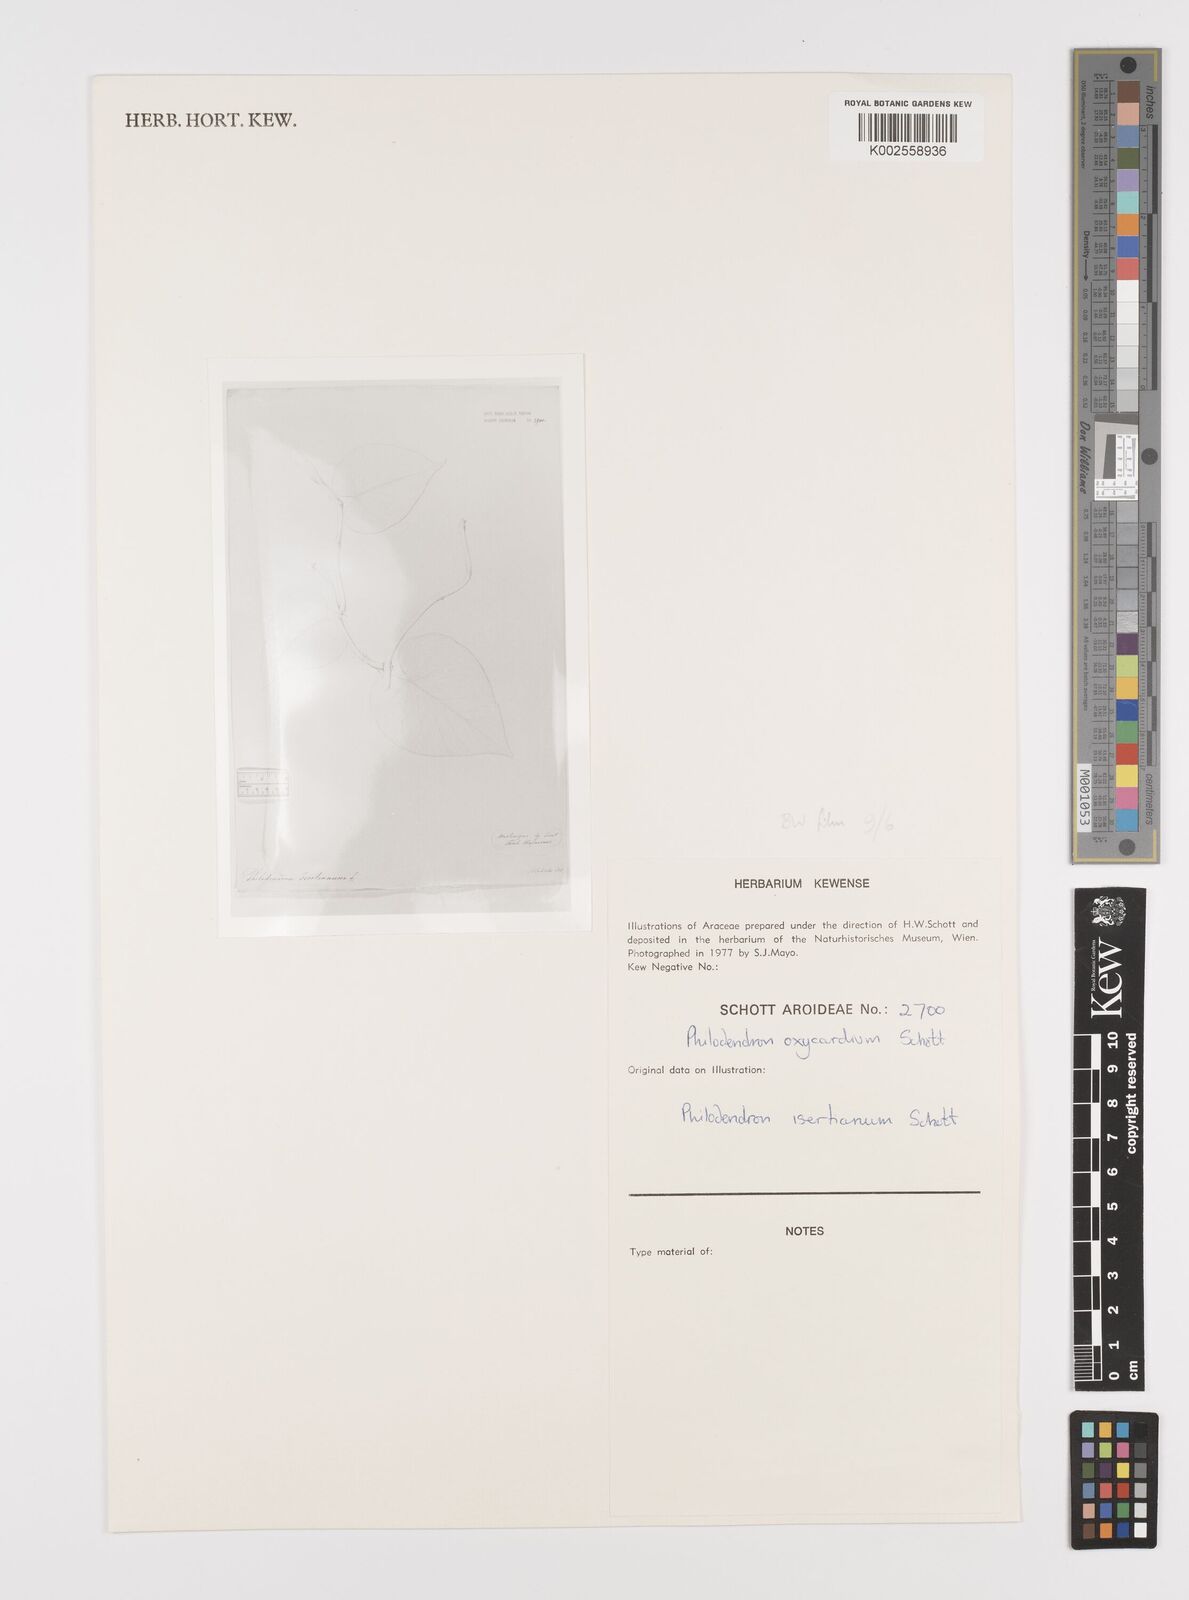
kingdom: Plantae
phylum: Tracheophyta
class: Liliopsida
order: Alismatales
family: Araceae
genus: Philodendron
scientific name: Philodendron hederaceum
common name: Vilevine
